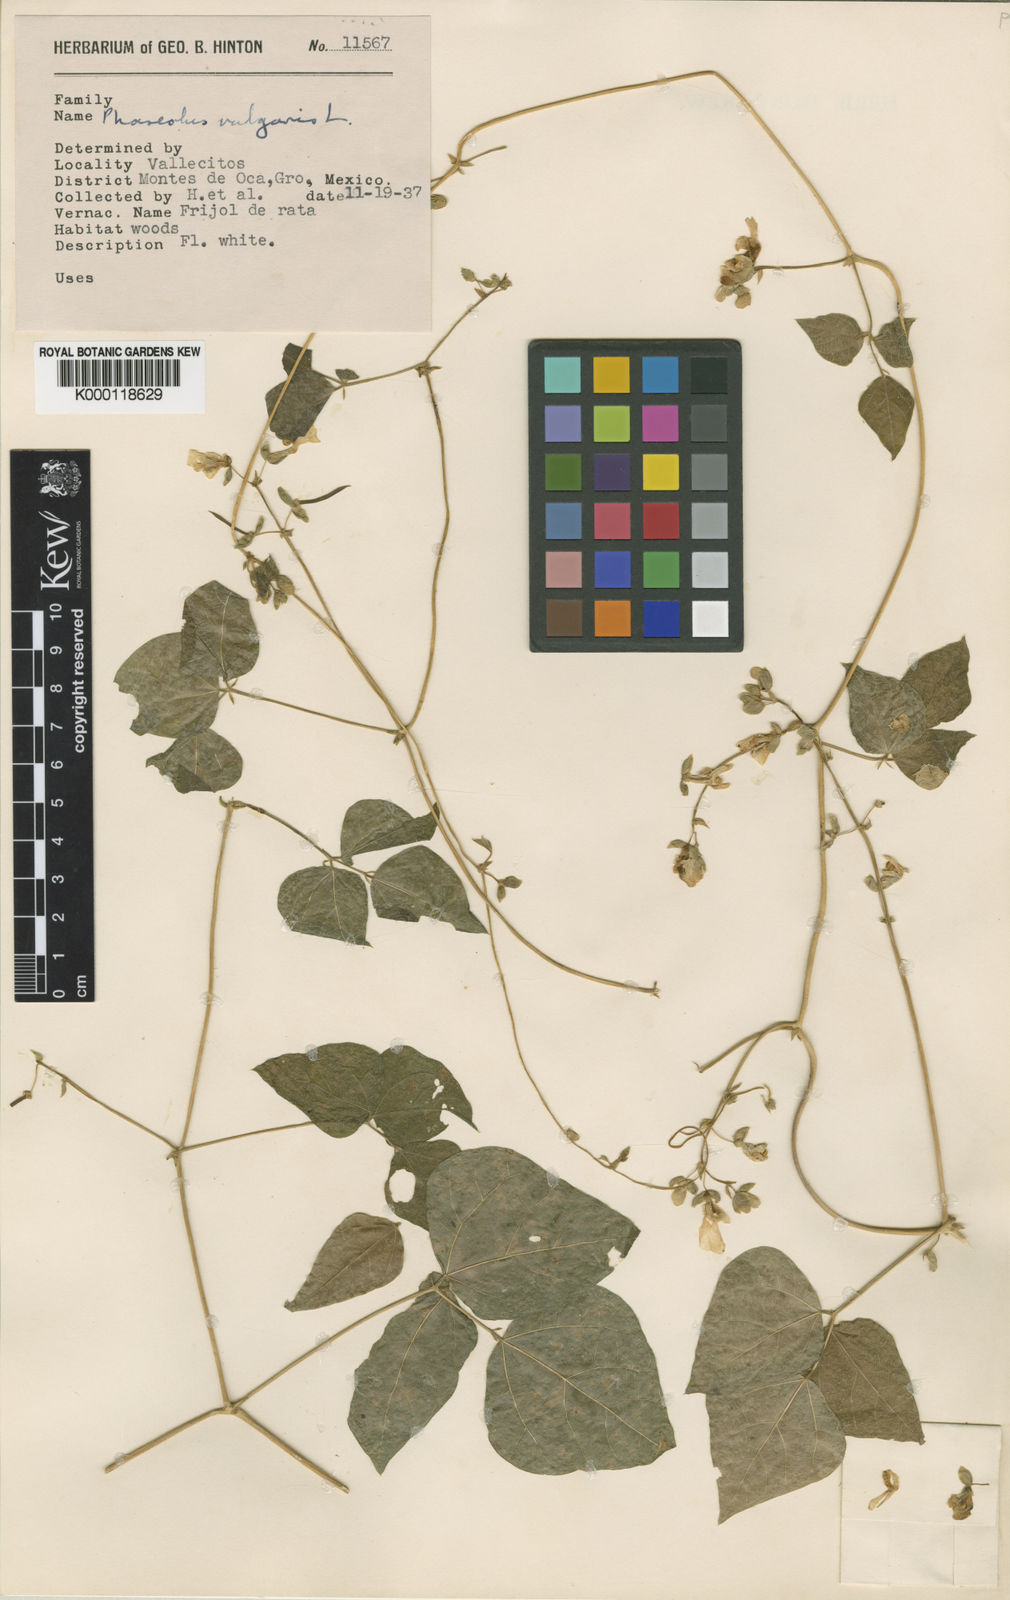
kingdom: Plantae
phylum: Tracheophyta
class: Magnoliopsida
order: Fabales
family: Fabaceae
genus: Phaseolus
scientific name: Phaseolus vulgaris
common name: Bean
